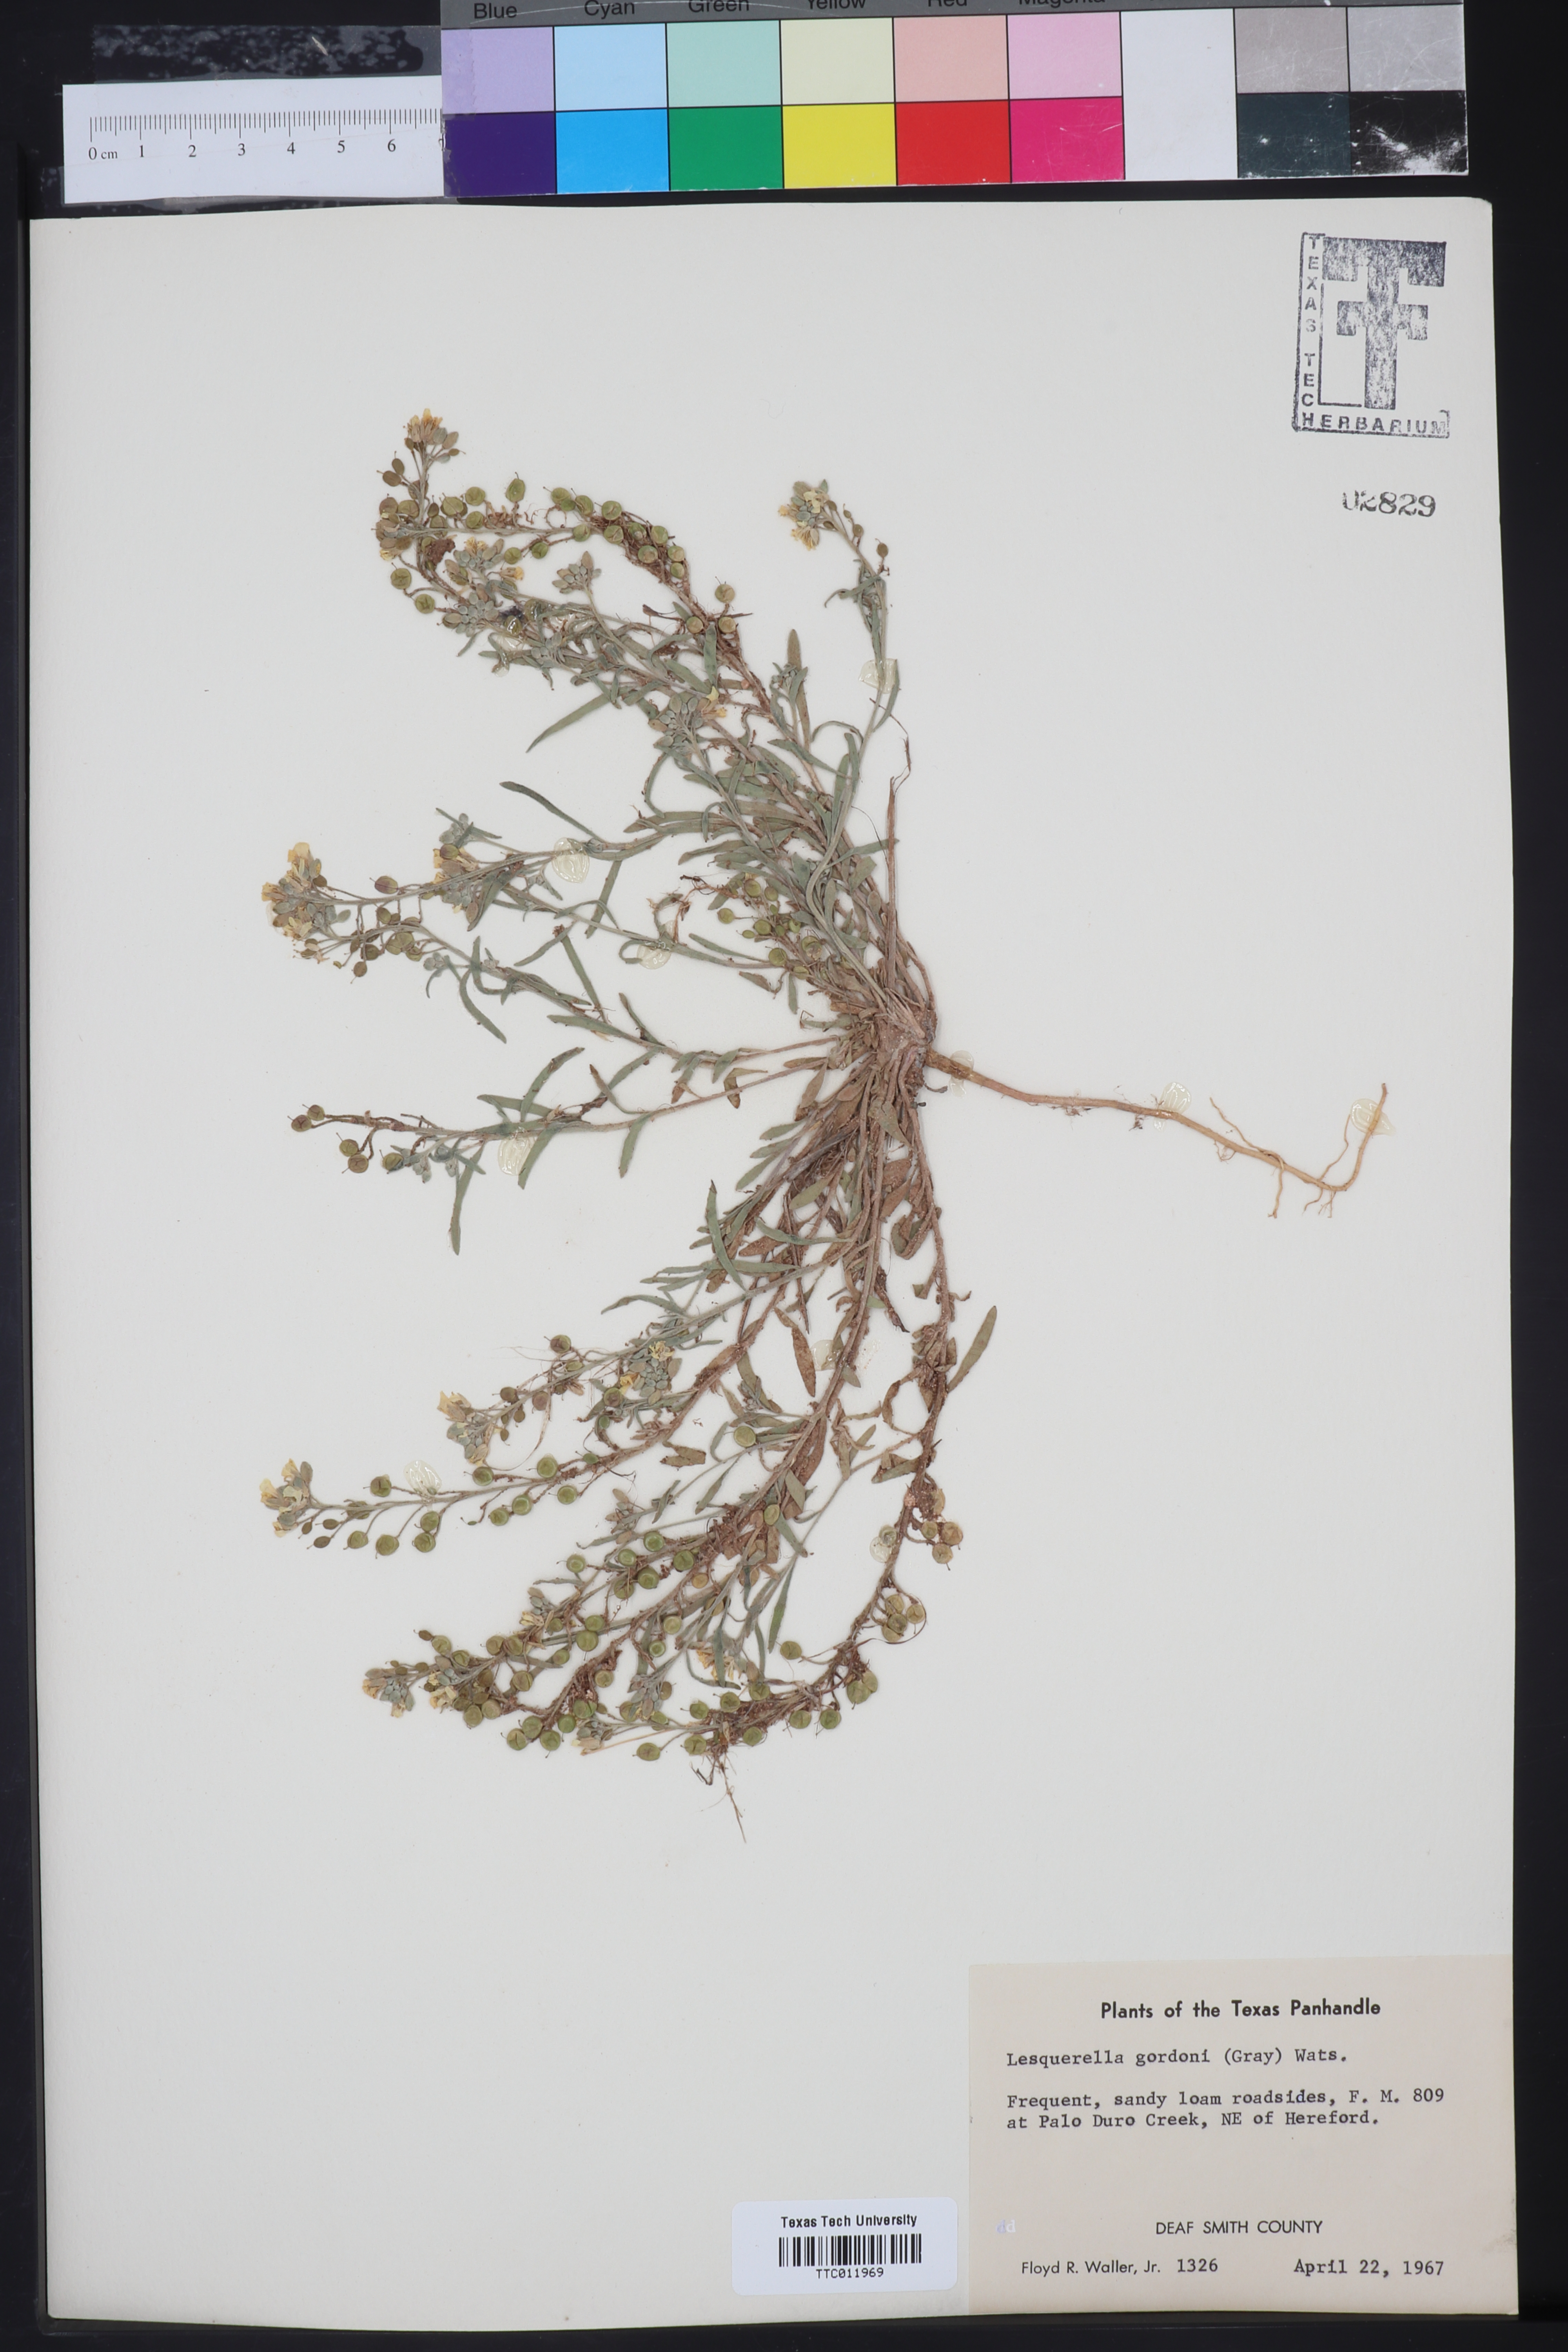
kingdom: Plantae
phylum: Tracheophyta
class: Magnoliopsida
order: Brassicales
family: Brassicaceae
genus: Physaria
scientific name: Physaria gordonii
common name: Gordon's bladderpod
